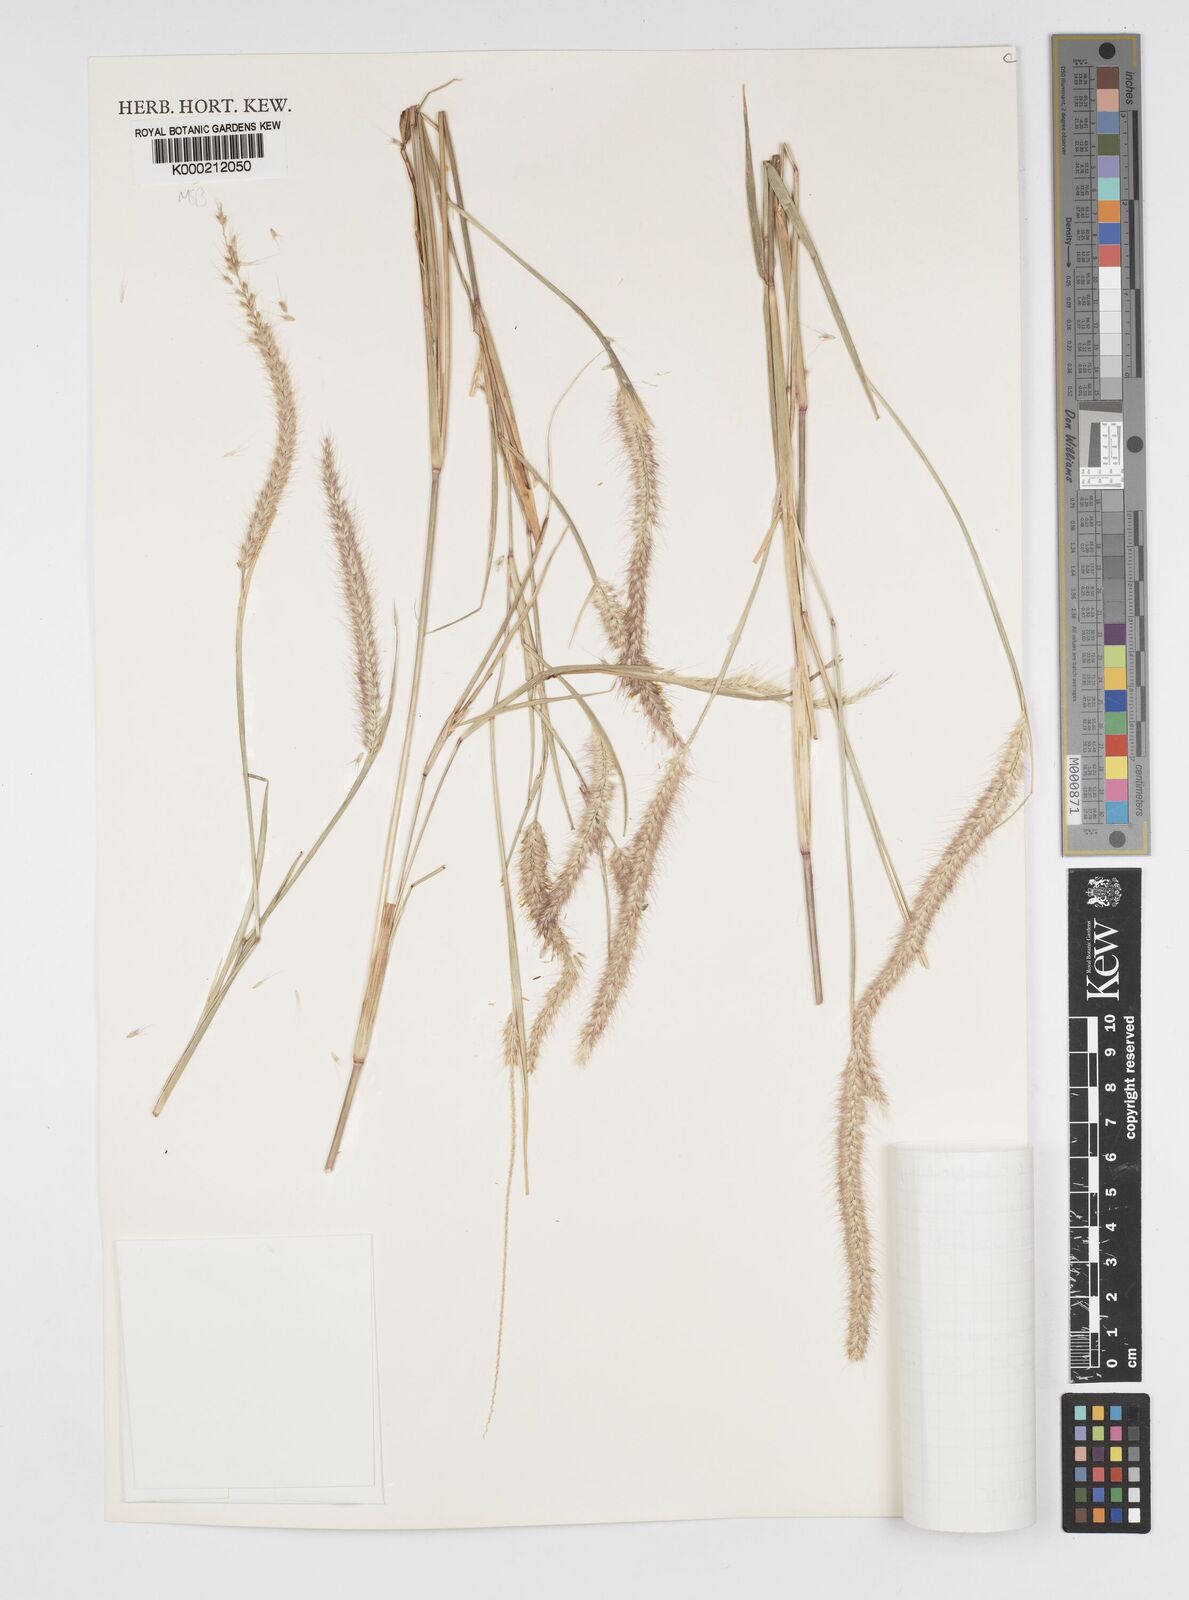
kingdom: Plantae
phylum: Tracheophyta
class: Liliopsida
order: Poales
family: Poaceae
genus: Setaria
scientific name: Setaria parviflora
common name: Knotroot bristle-grass
